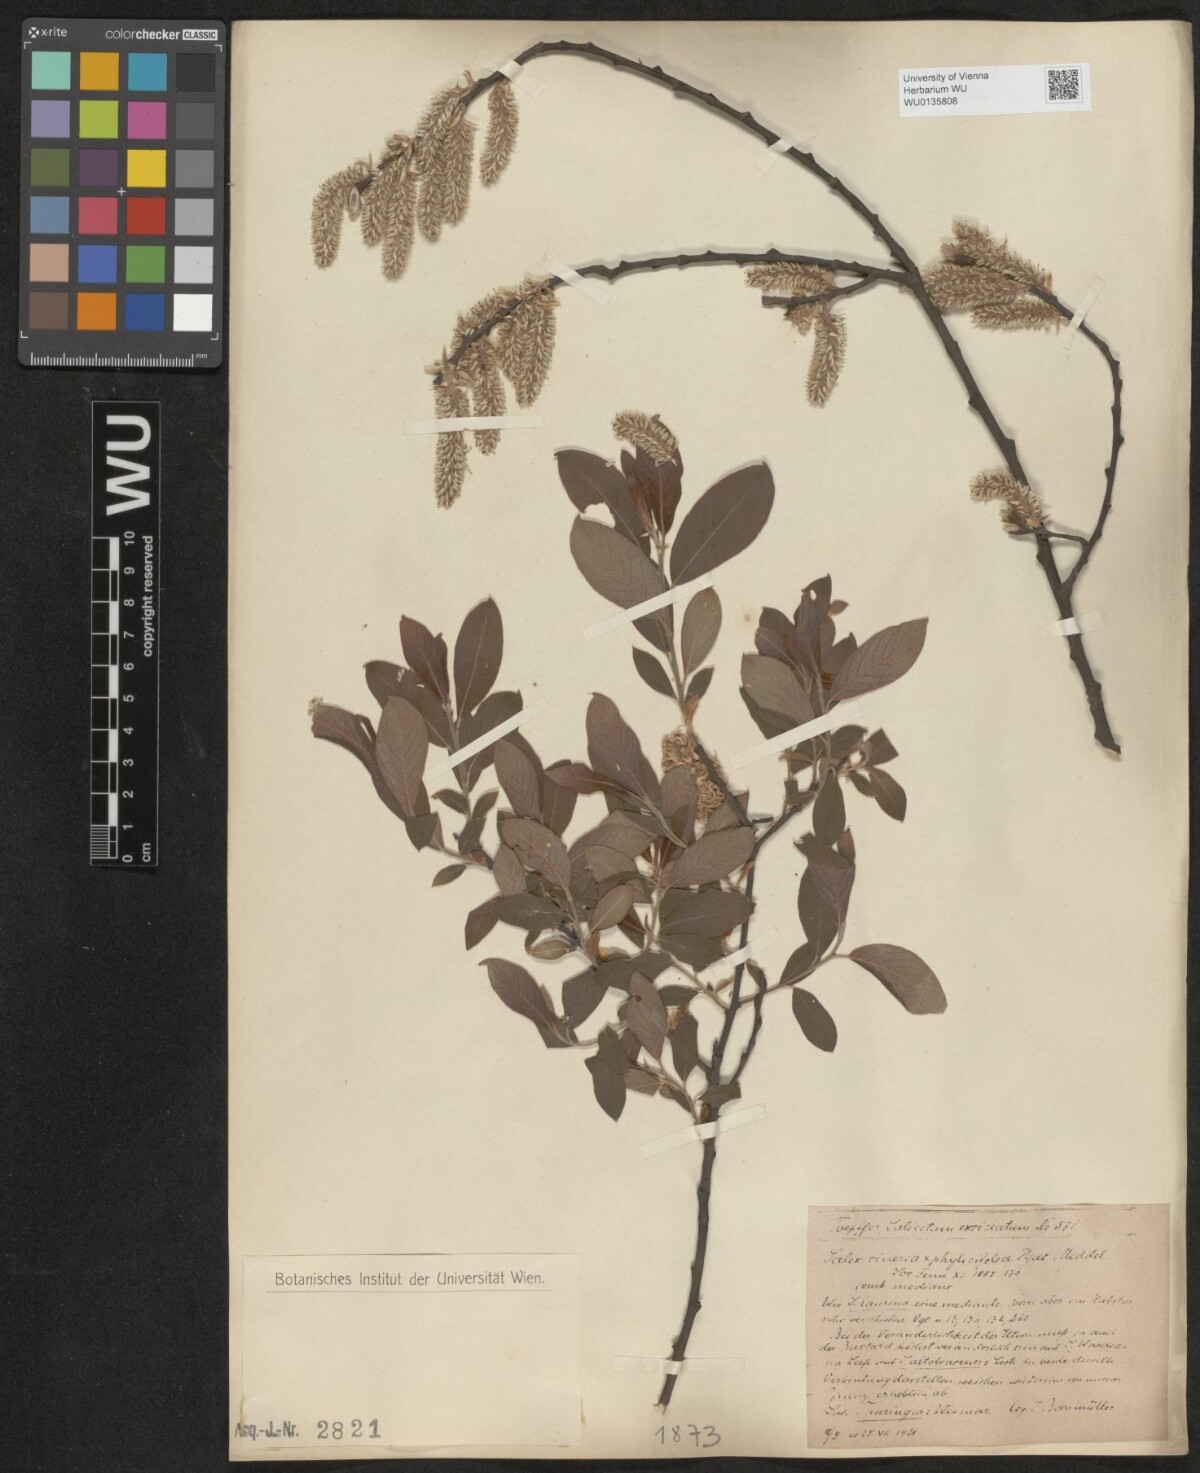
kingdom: Plantae
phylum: Tracheophyta
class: Magnoliopsida
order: Malpighiales
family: Salicaceae
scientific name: Salicaceae
